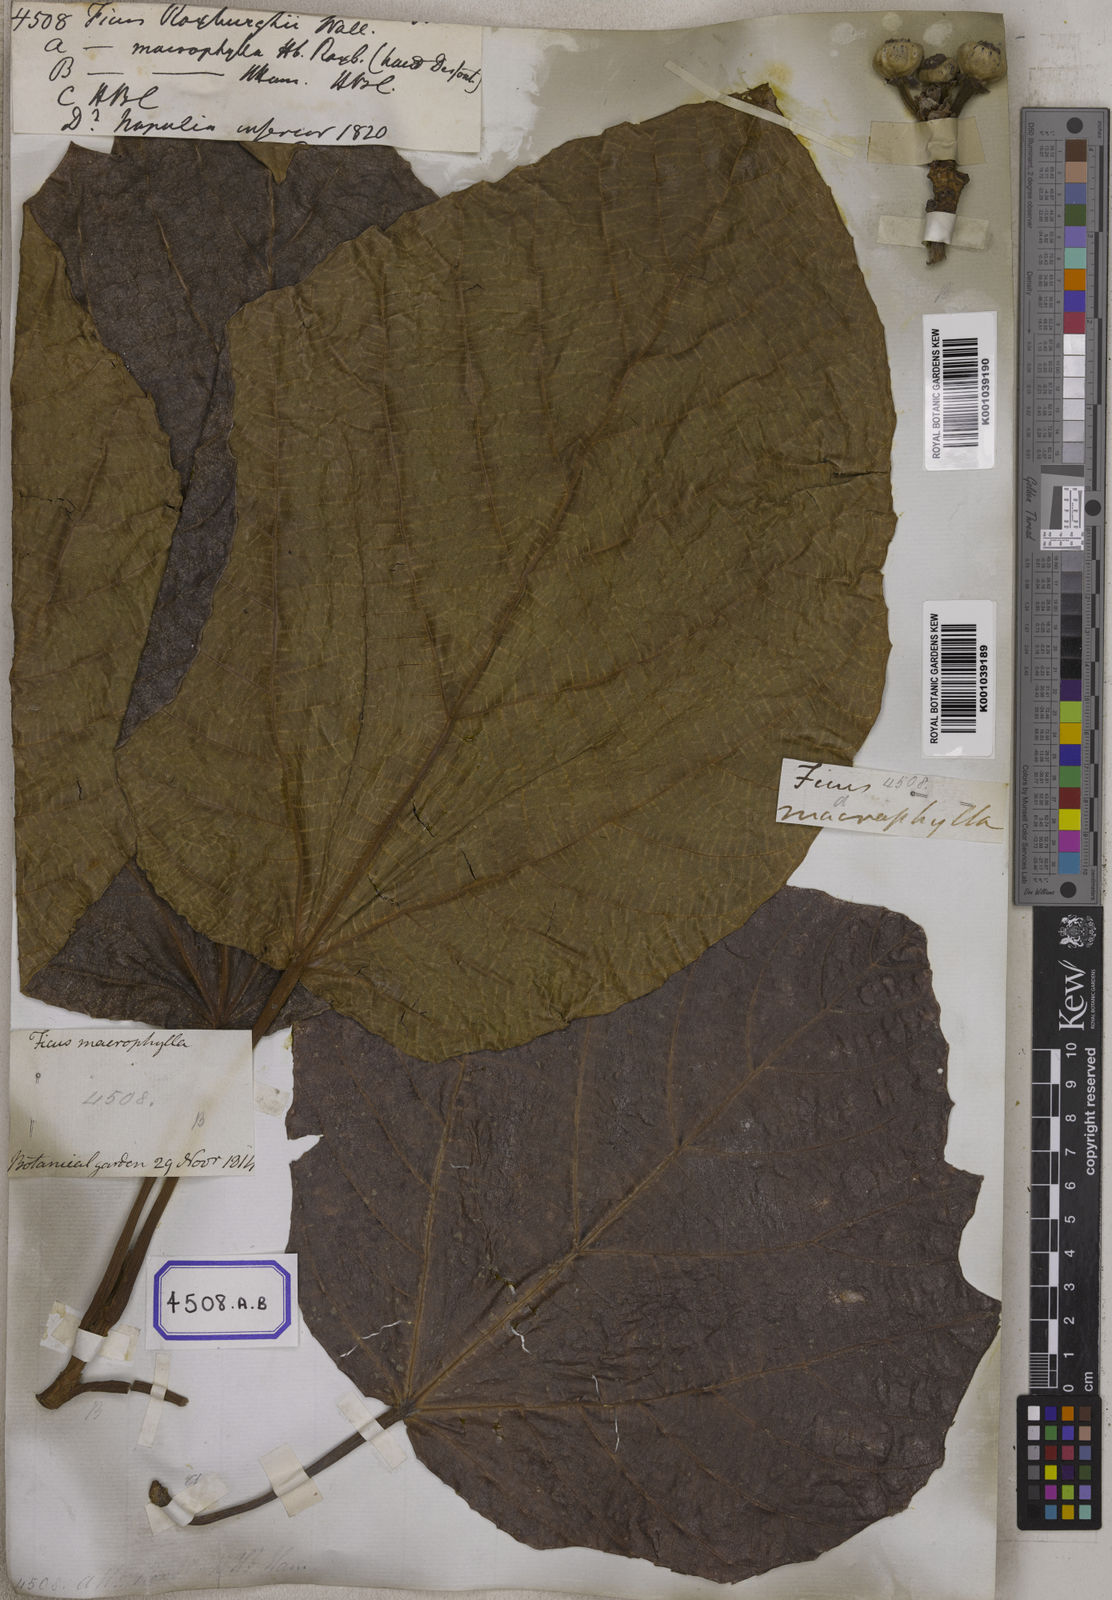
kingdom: Plantae
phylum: Tracheophyta
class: Magnoliopsida
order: Rosales
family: Moraceae
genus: Ficus
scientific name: Ficus
